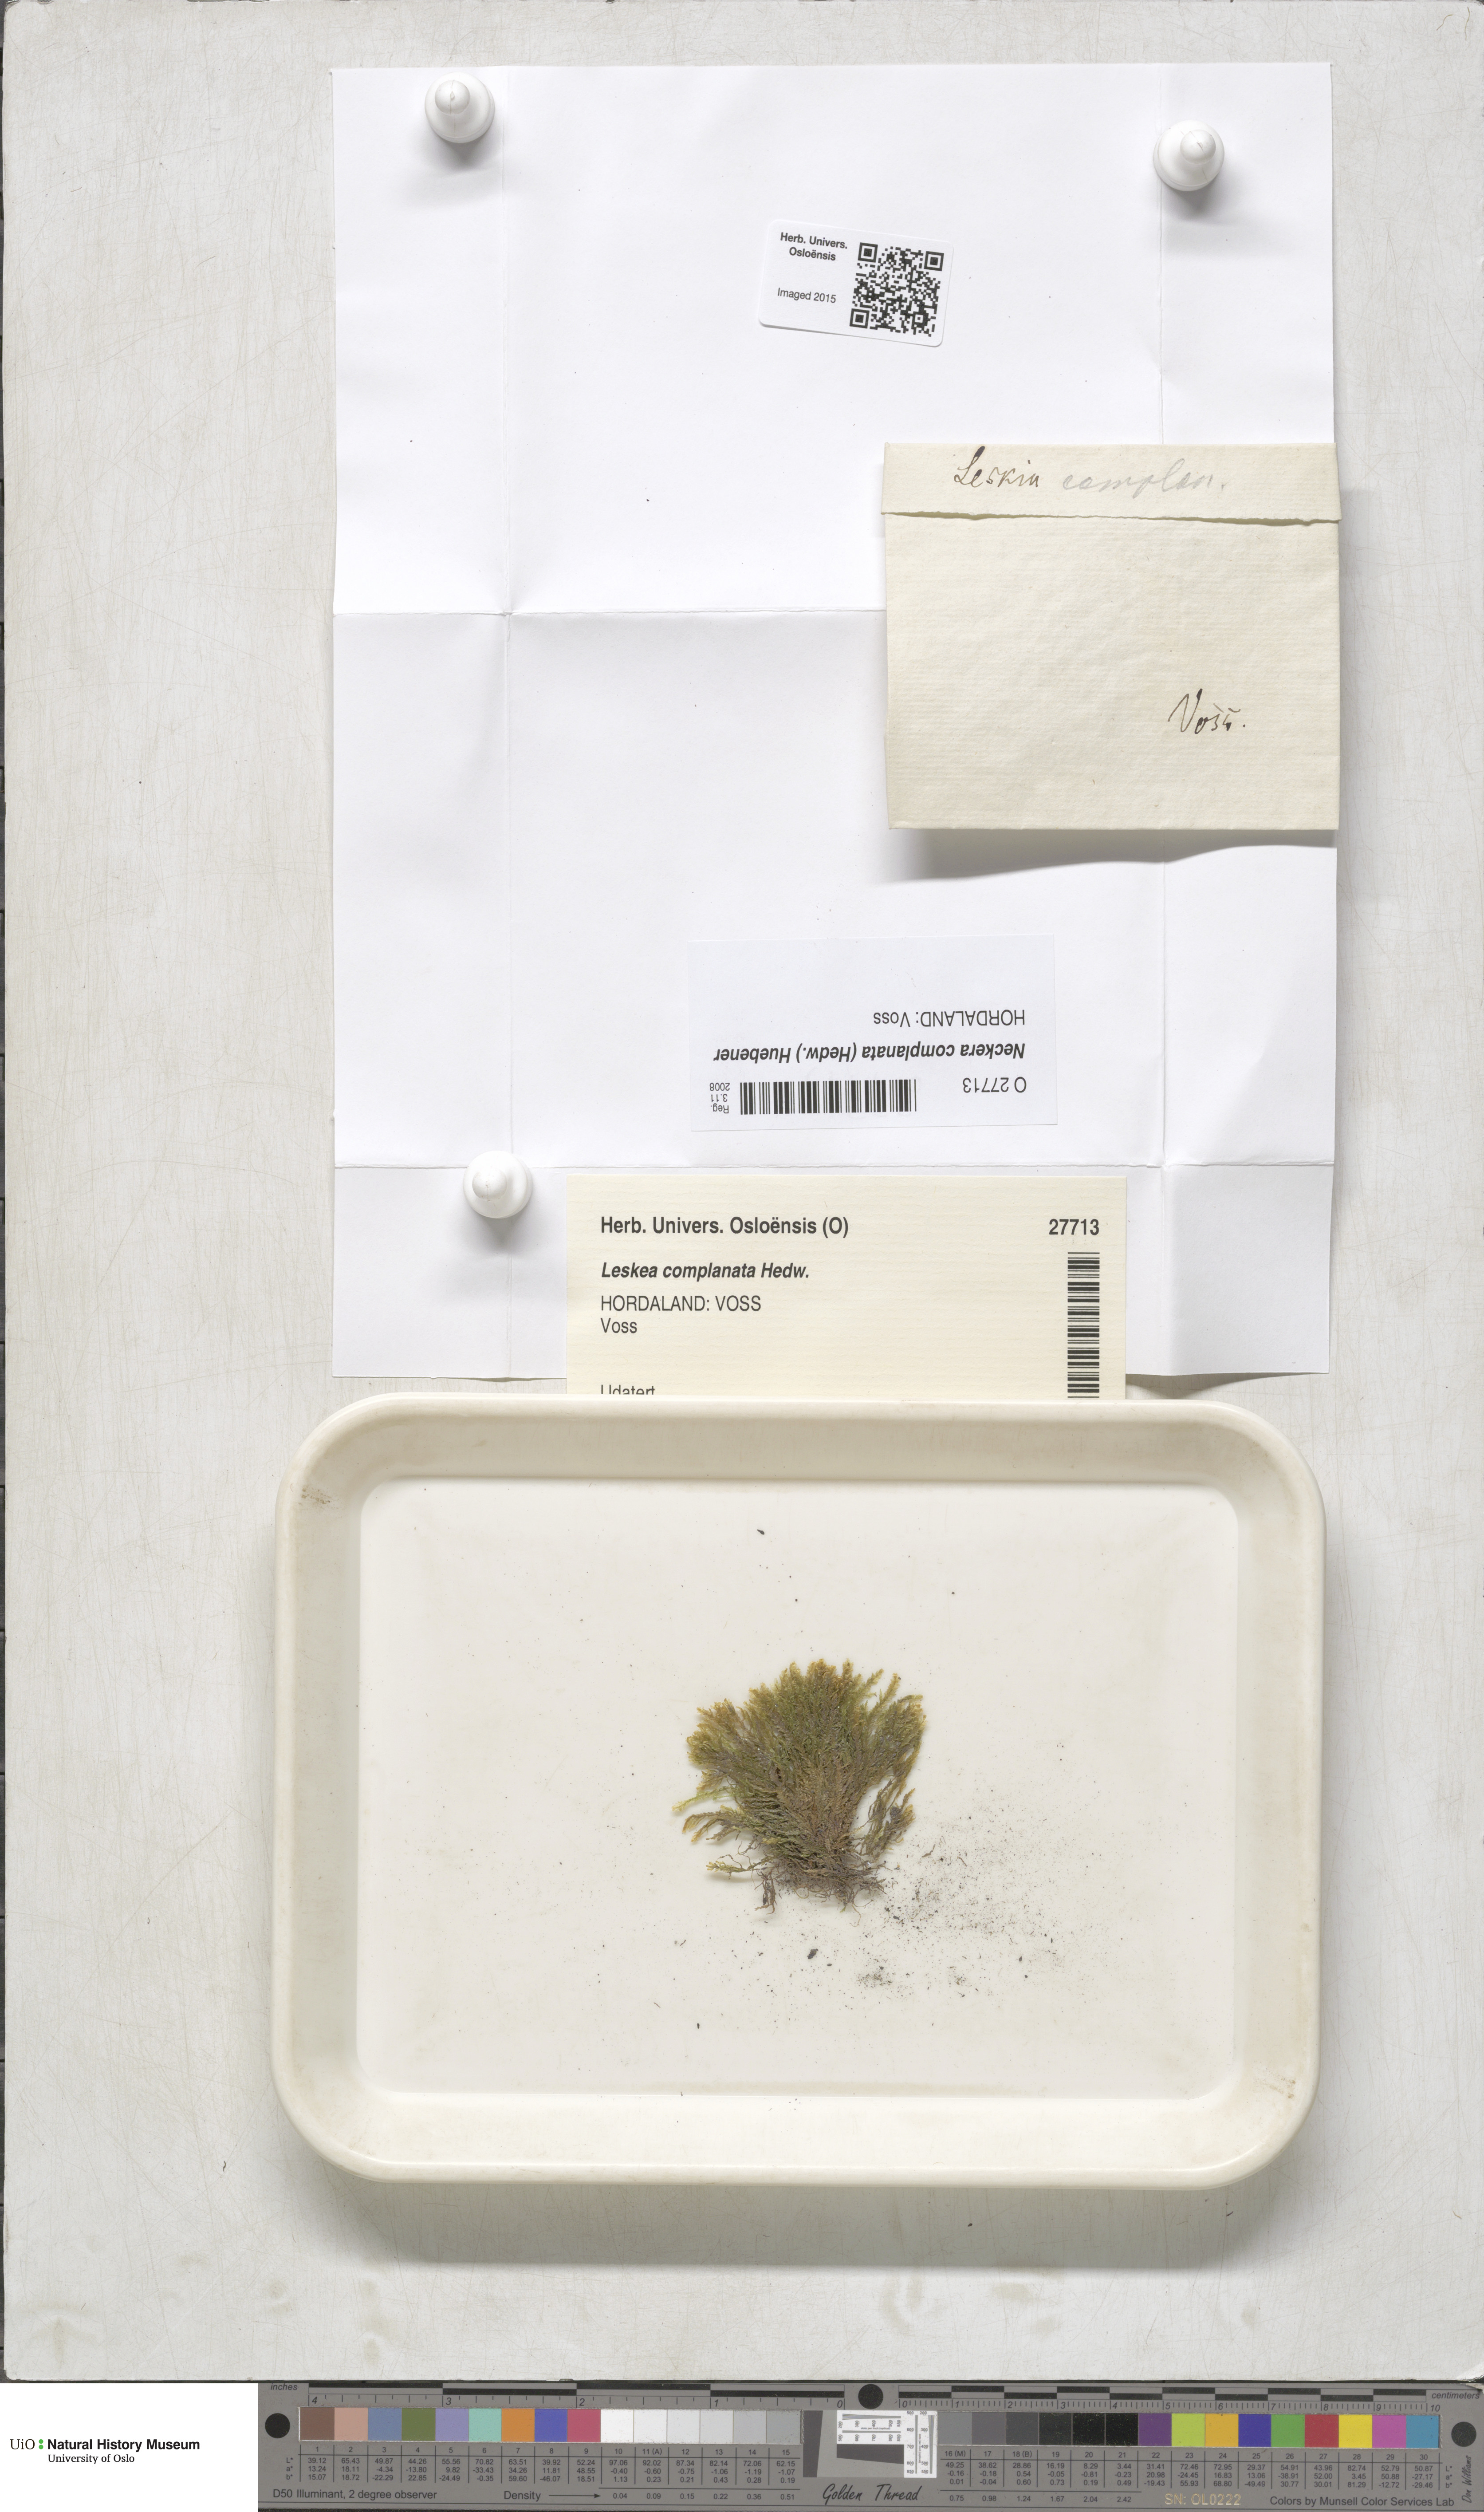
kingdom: Plantae
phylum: Bryophyta
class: Bryopsida
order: Hypnales
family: Neckeraceae
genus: Alleniella
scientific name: Alleniella complanata
